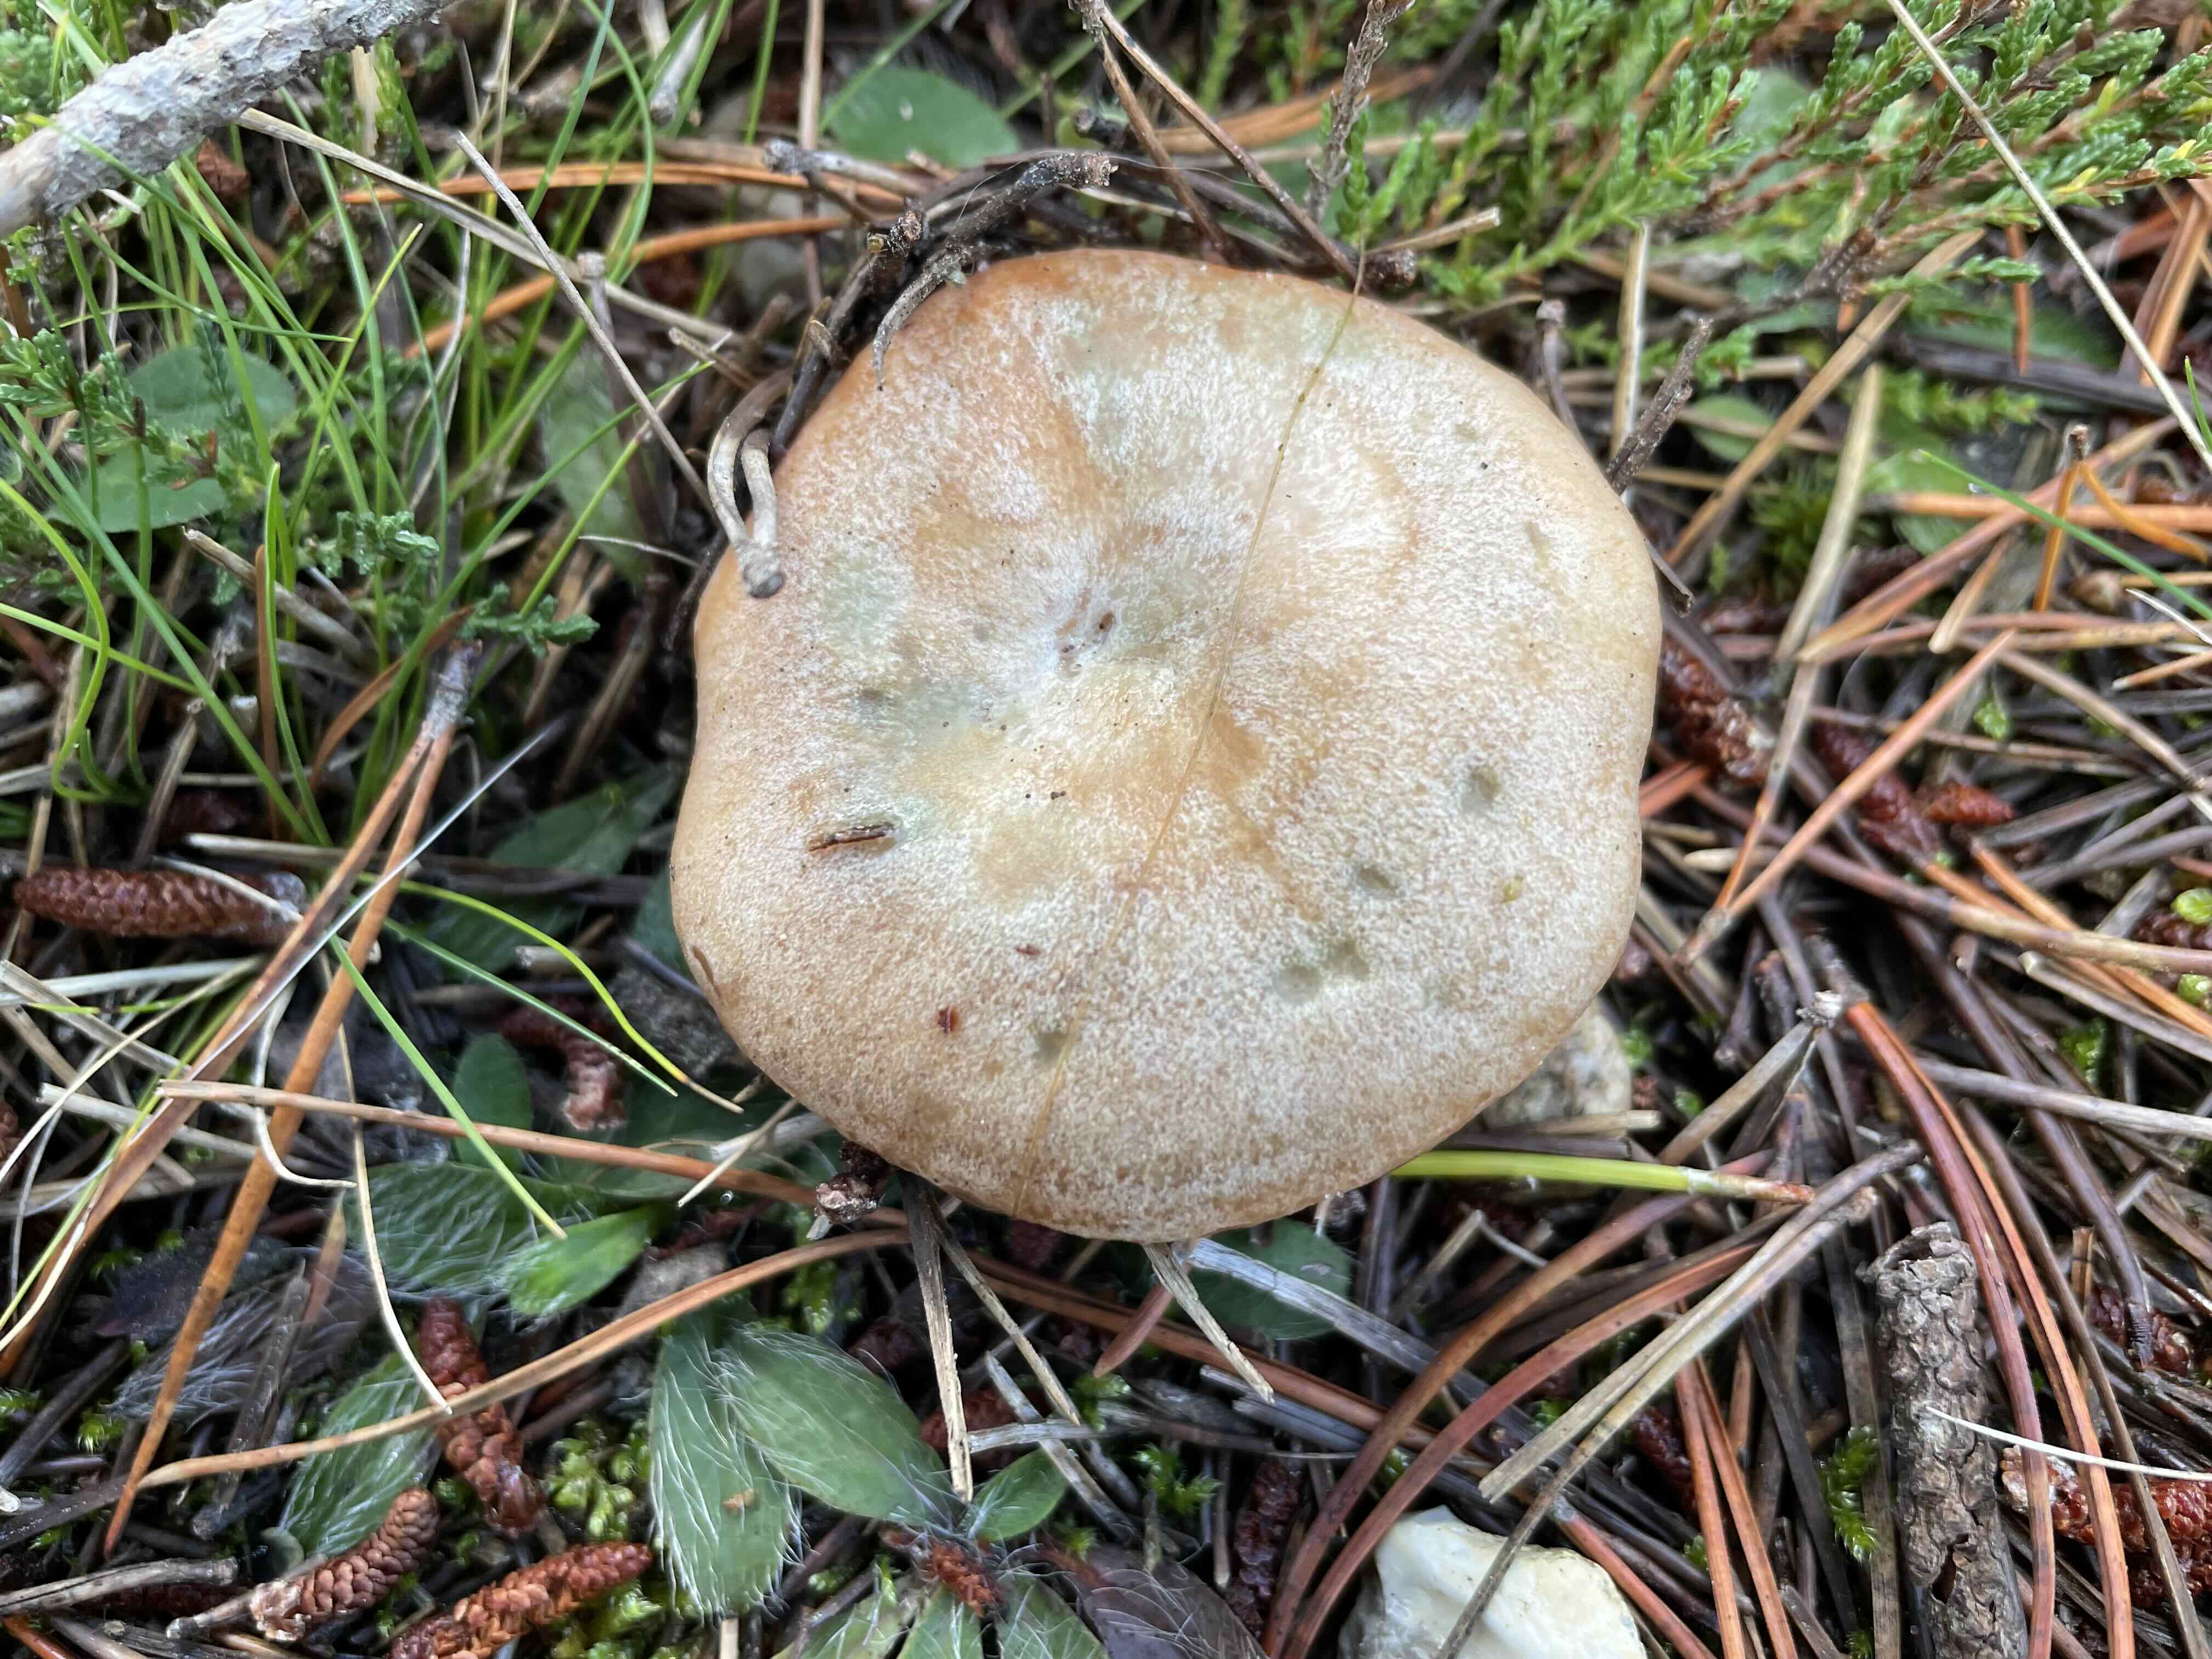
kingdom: Fungi
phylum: Basidiomycota
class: Agaricomycetes
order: Russulales
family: Russulaceae
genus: Lactarius
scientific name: Lactarius deliciosus
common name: velsmagende mælkehat
